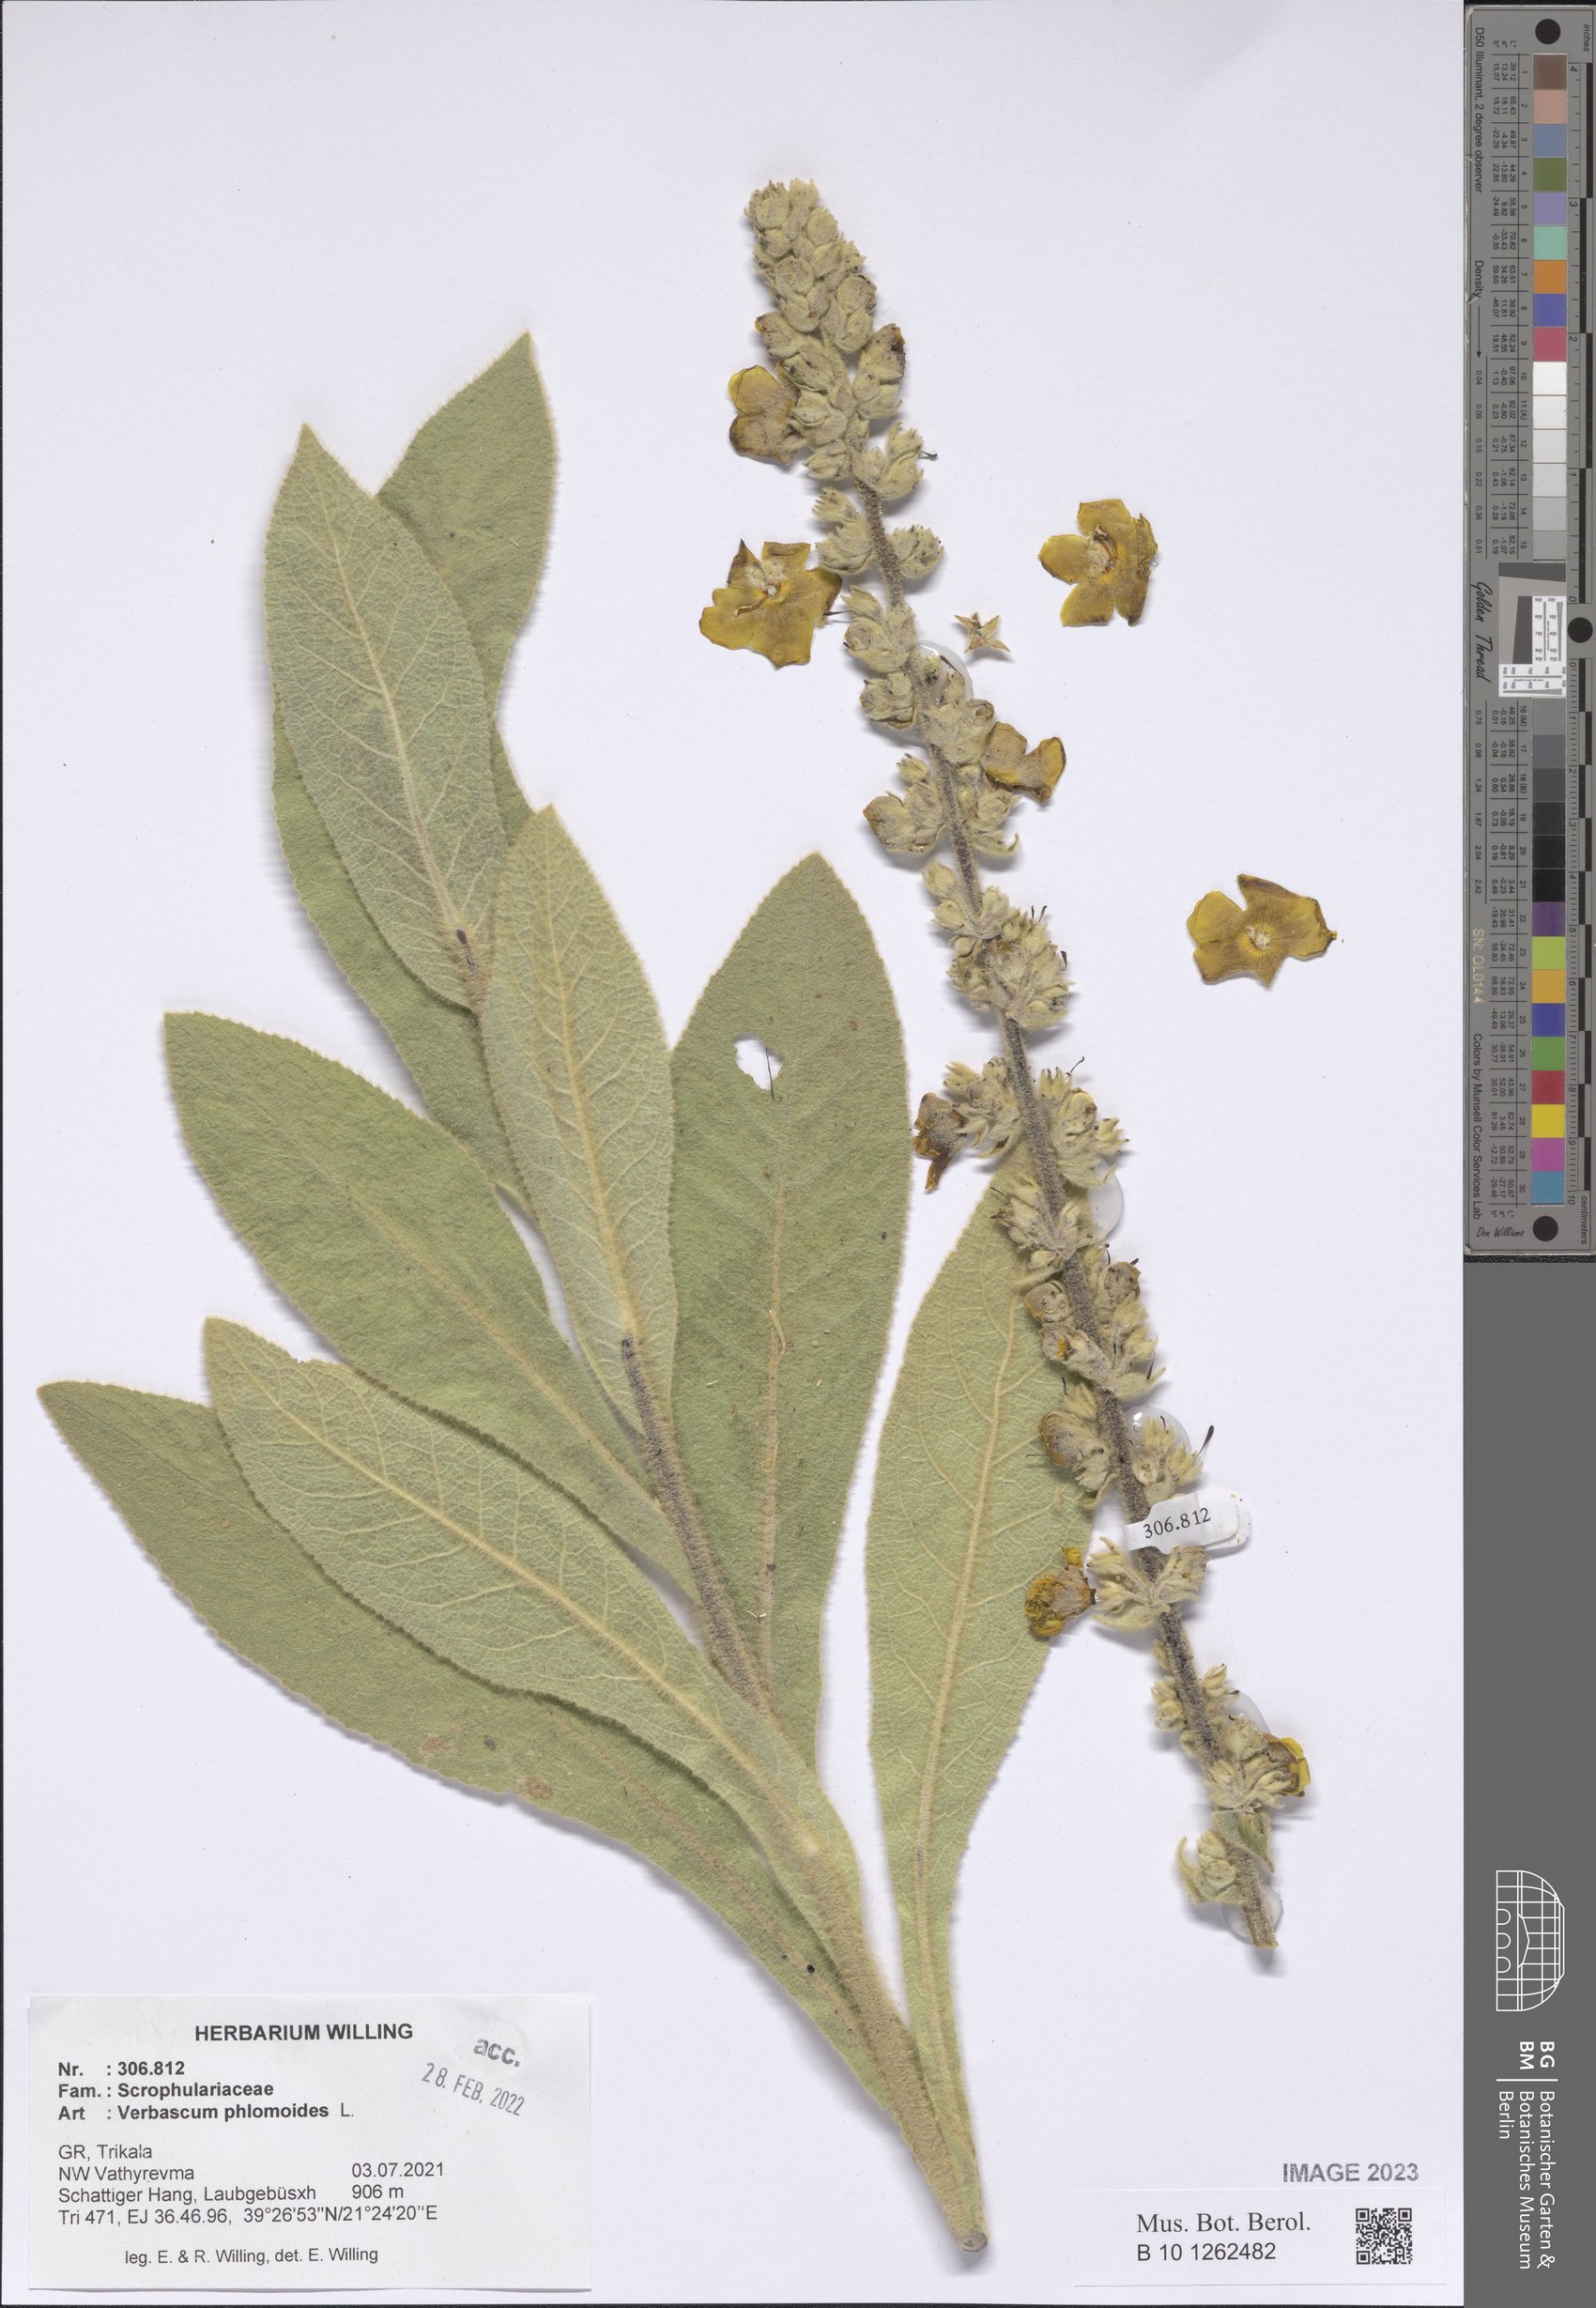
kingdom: Plantae
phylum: Tracheophyta
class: Magnoliopsida
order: Lamiales
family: Scrophulariaceae
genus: Verbascum
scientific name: Verbascum phlomoides
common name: Orange mullein
